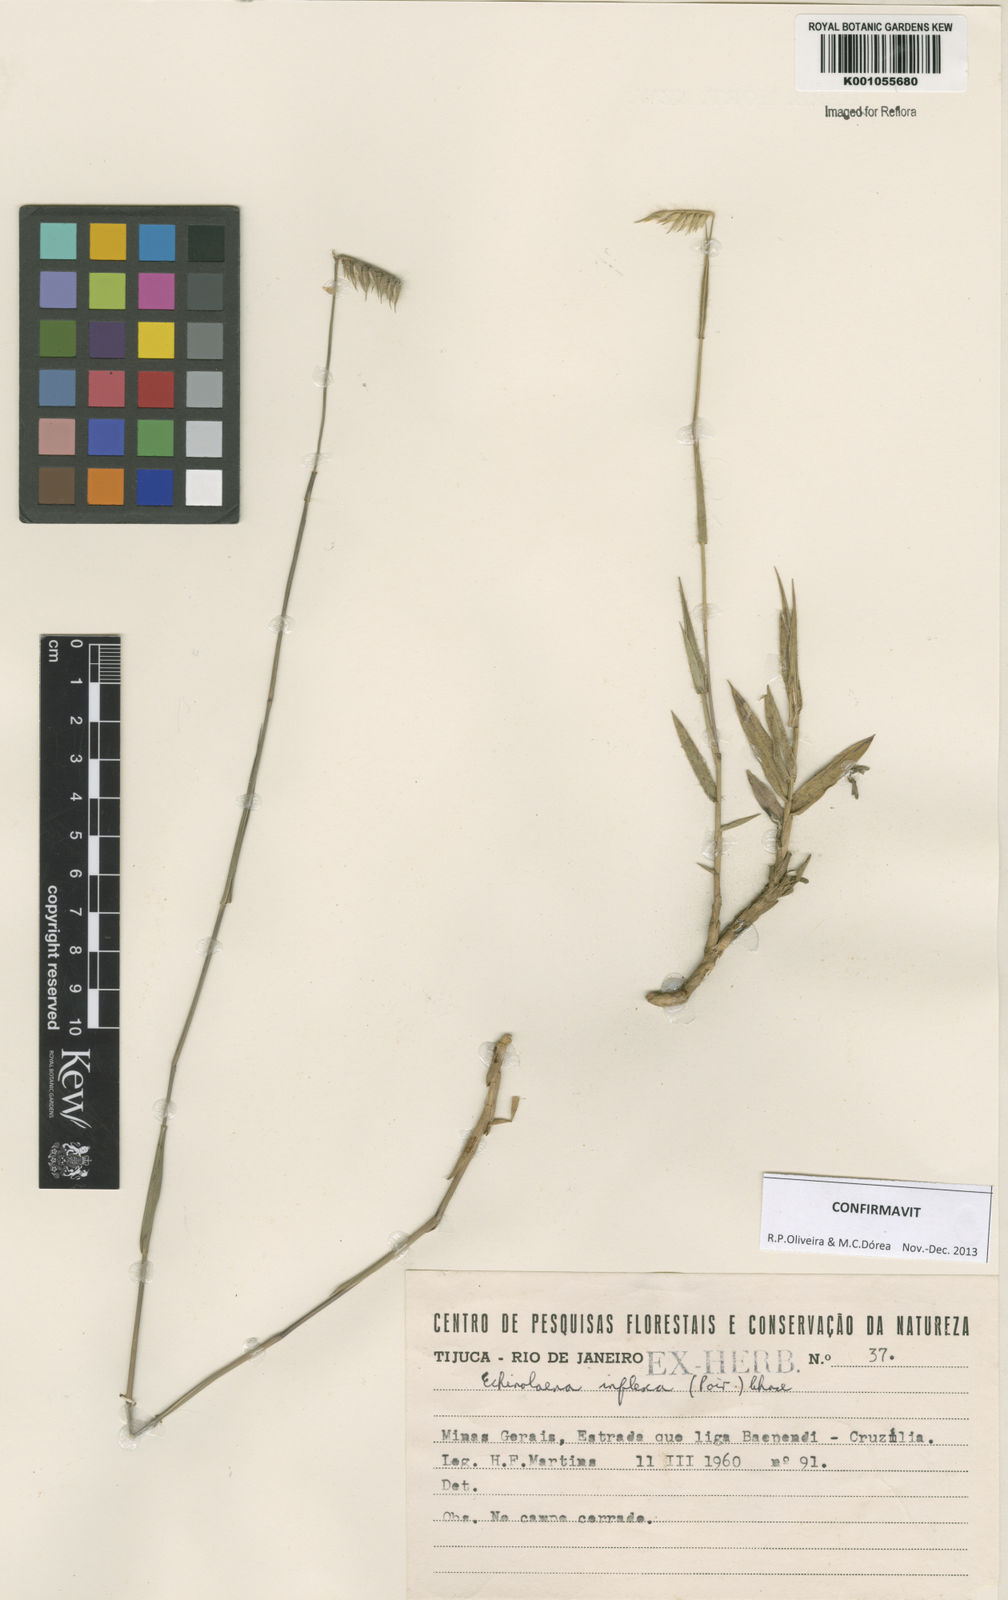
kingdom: Plantae
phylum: Tracheophyta
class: Liliopsida
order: Poales
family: Poaceae
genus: Echinolaena
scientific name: Echinolaena inflexa
